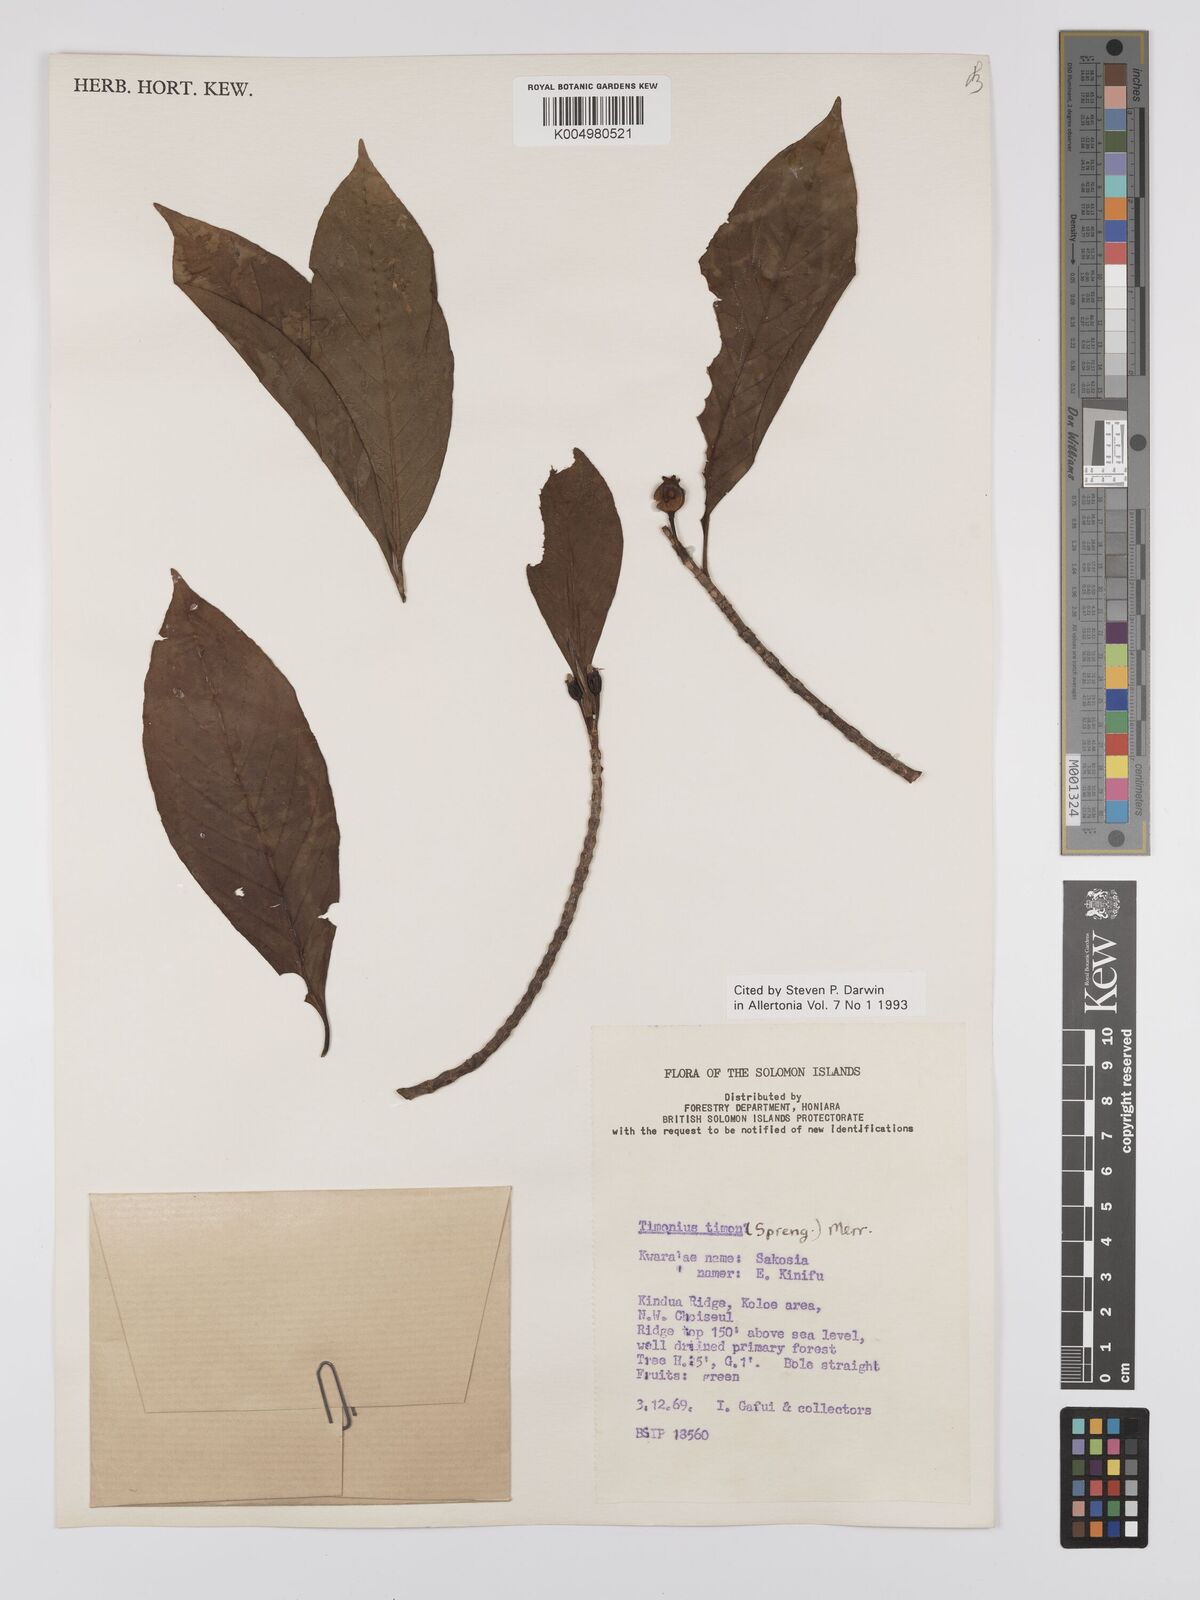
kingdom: Plantae
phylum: Tracheophyta
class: Magnoliopsida
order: Gentianales
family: Rubiaceae
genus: Timonius
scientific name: Timonius timon
